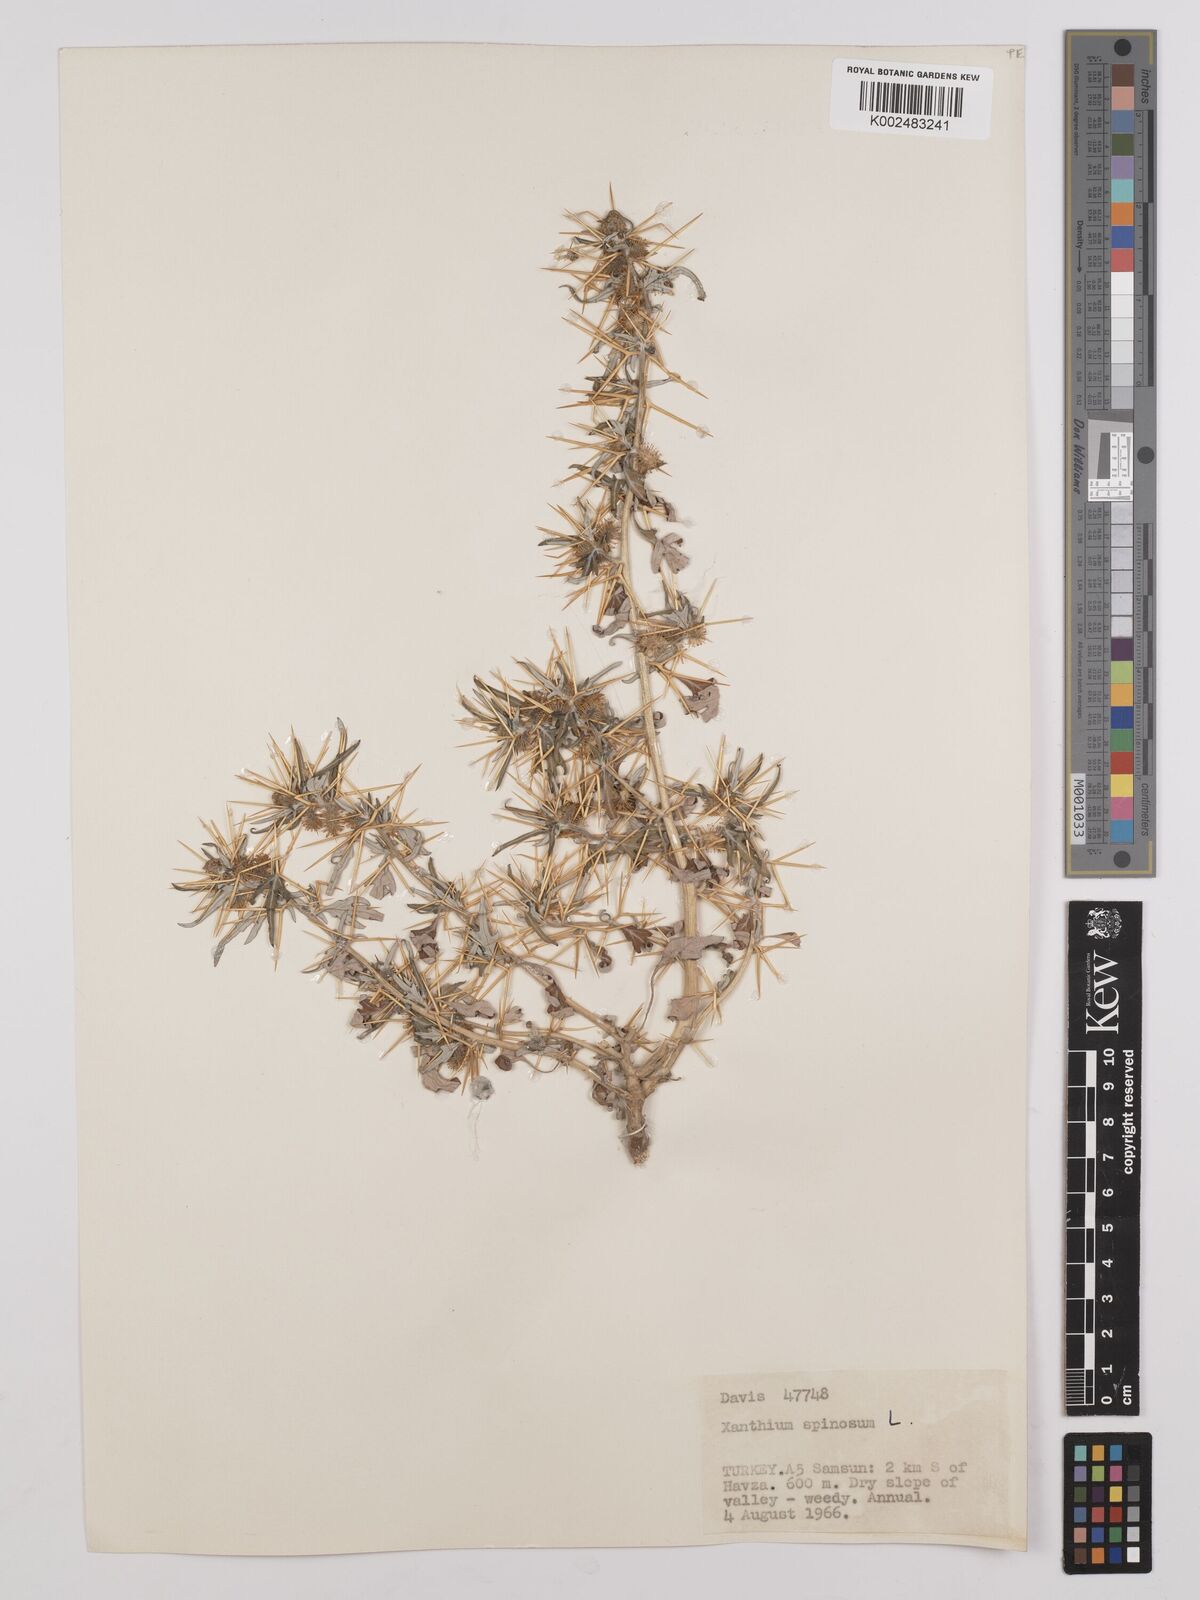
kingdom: Plantae
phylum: Tracheophyta
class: Magnoliopsida
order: Asterales
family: Asteraceae
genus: Xanthium
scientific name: Xanthium spinosum
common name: Spiny cocklebur
